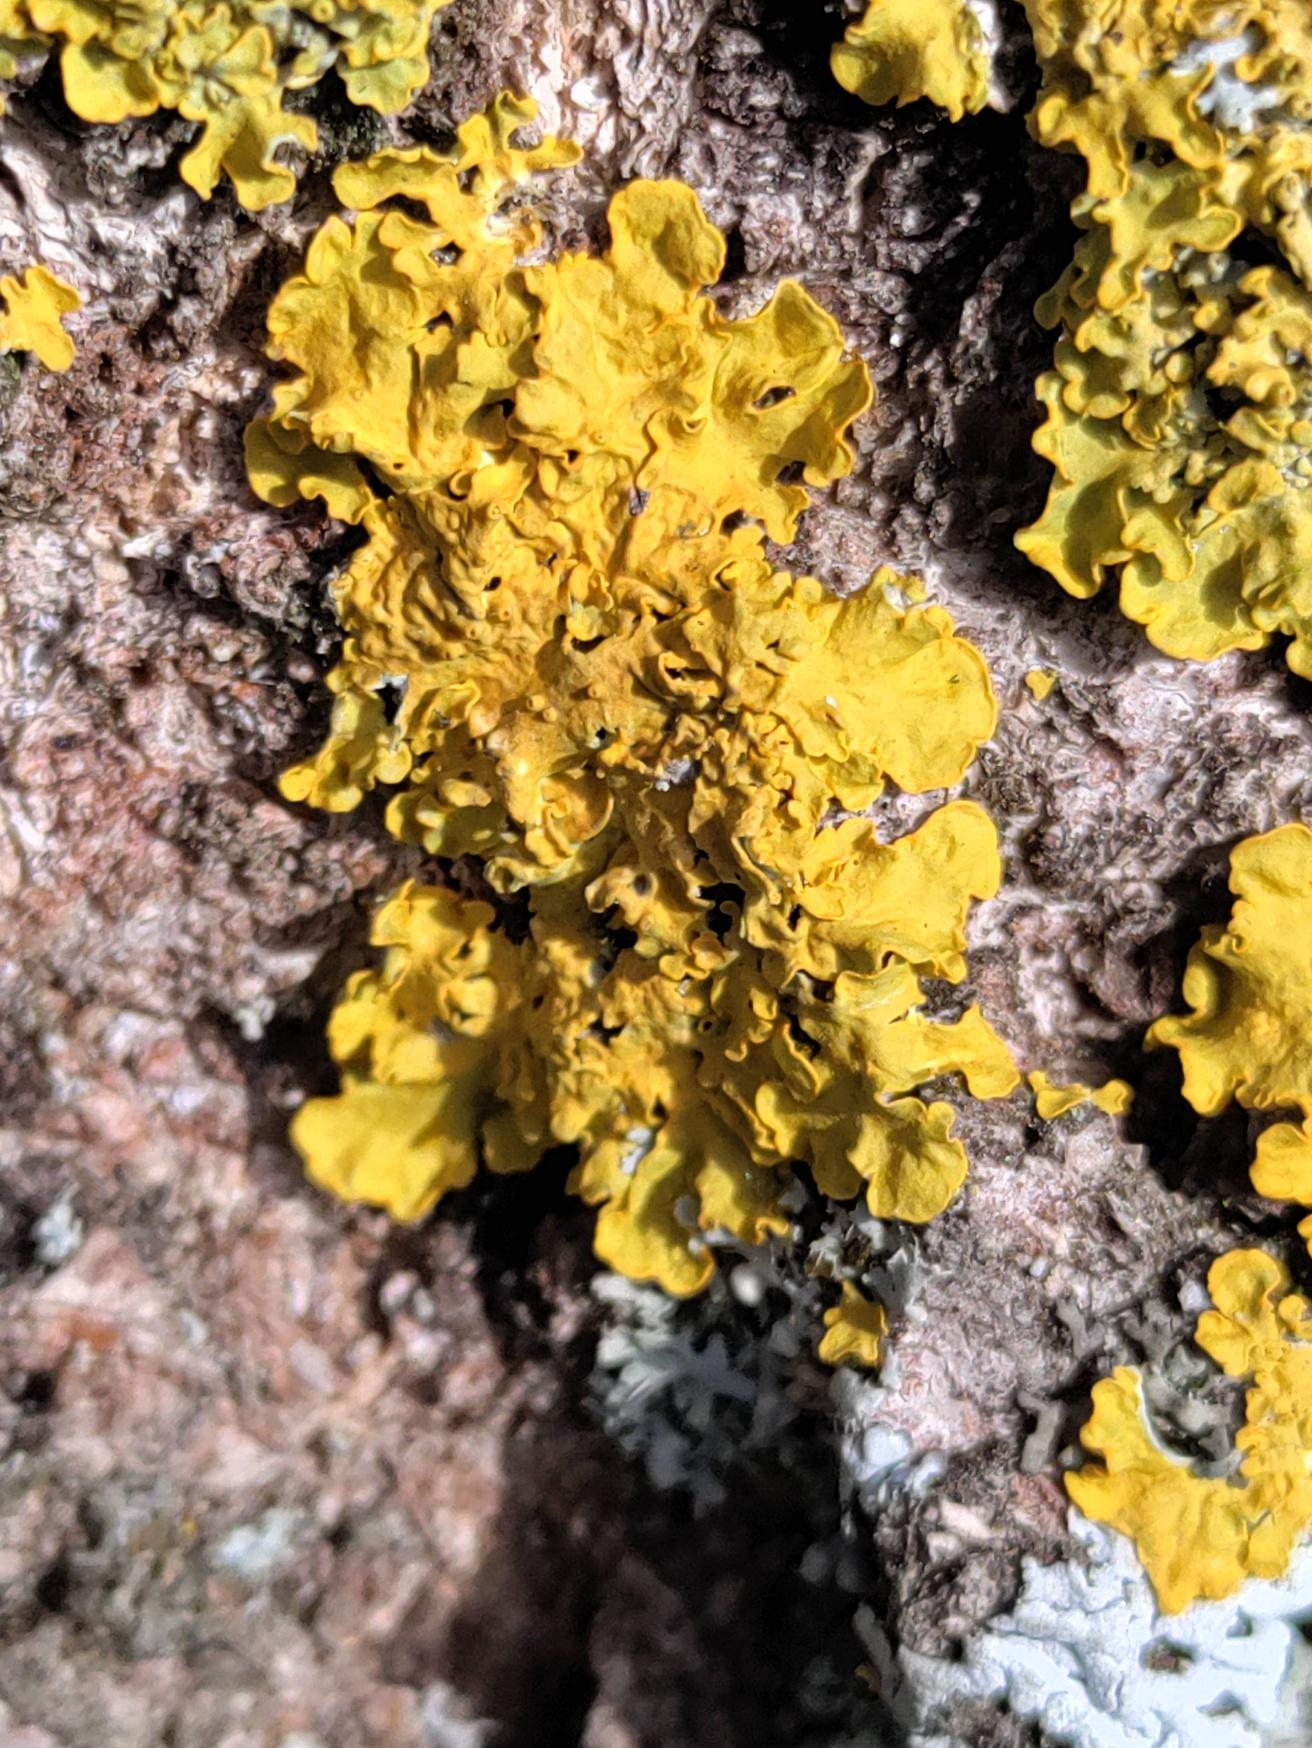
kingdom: Fungi
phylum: Ascomycota
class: Lecanoromycetes
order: Teloschistales
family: Teloschistaceae
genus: Xanthoria
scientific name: Xanthoria parietina
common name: Almindelig væggelav
